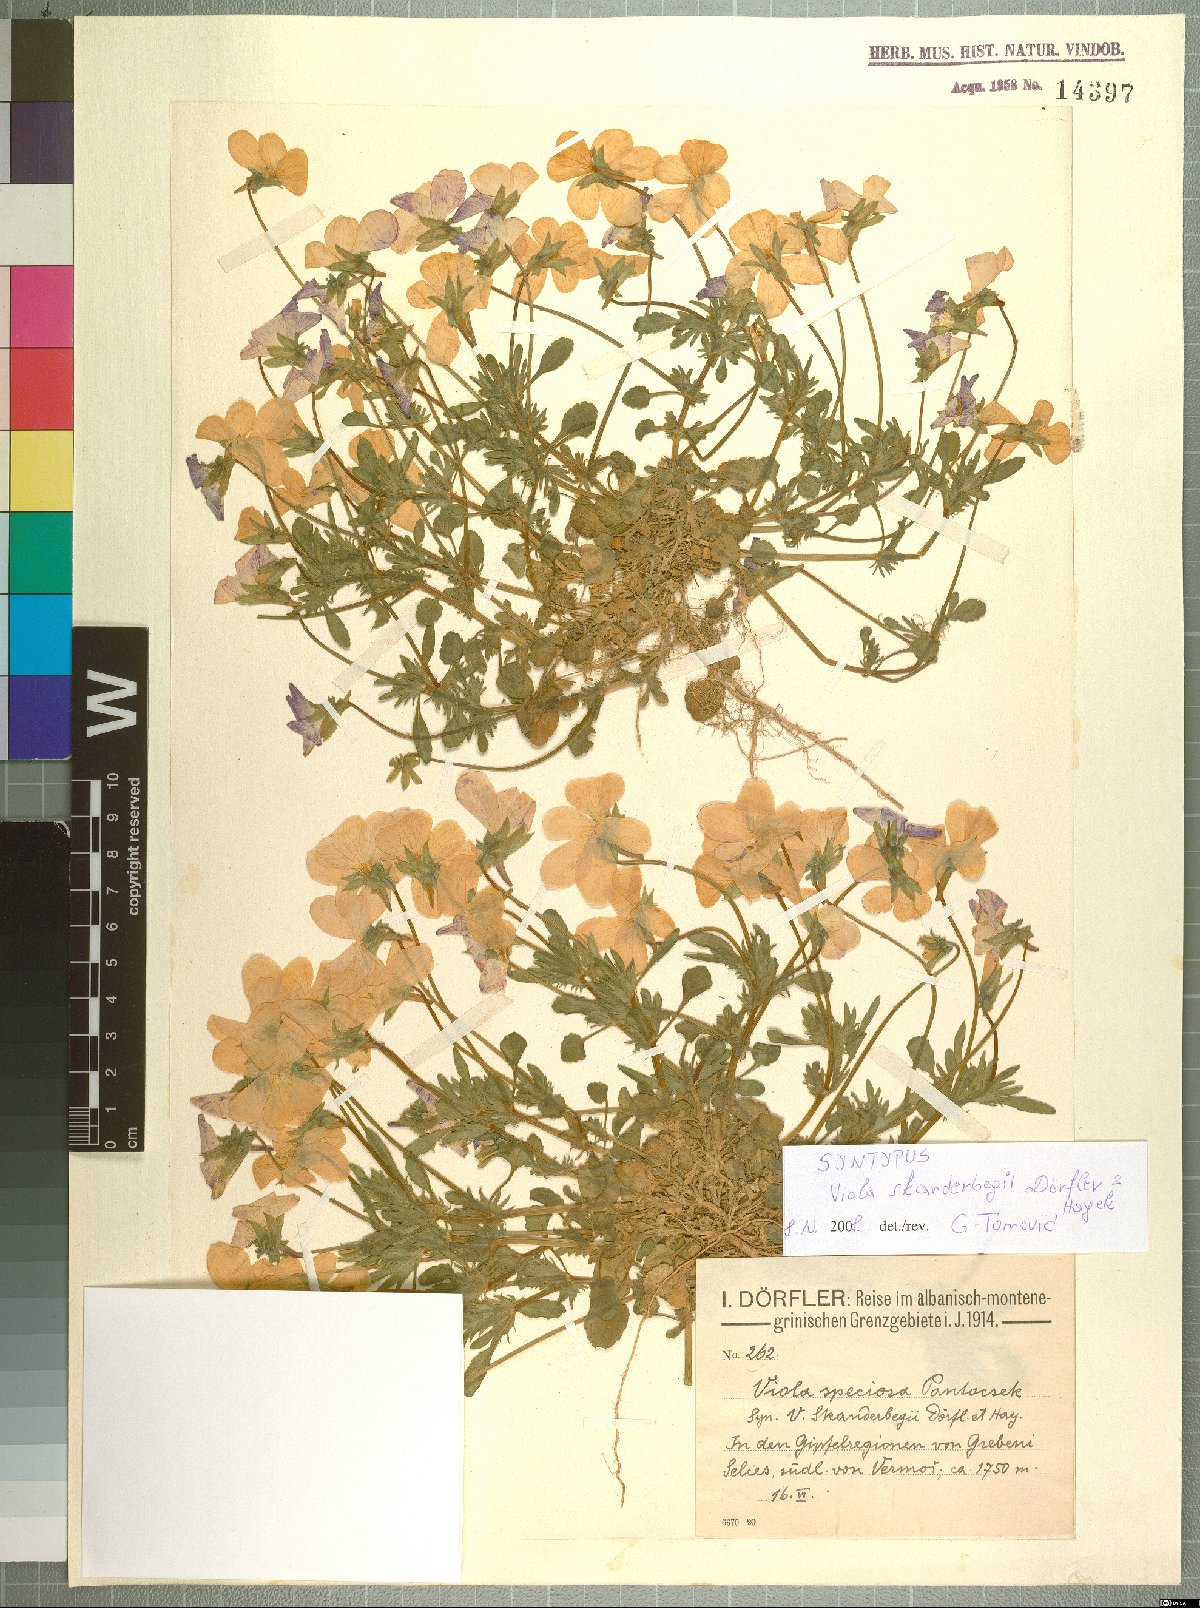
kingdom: Plantae
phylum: Tracheophyta
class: Magnoliopsida
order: Malpighiales
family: Violaceae
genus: Viola
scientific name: Viola skanderbegii
